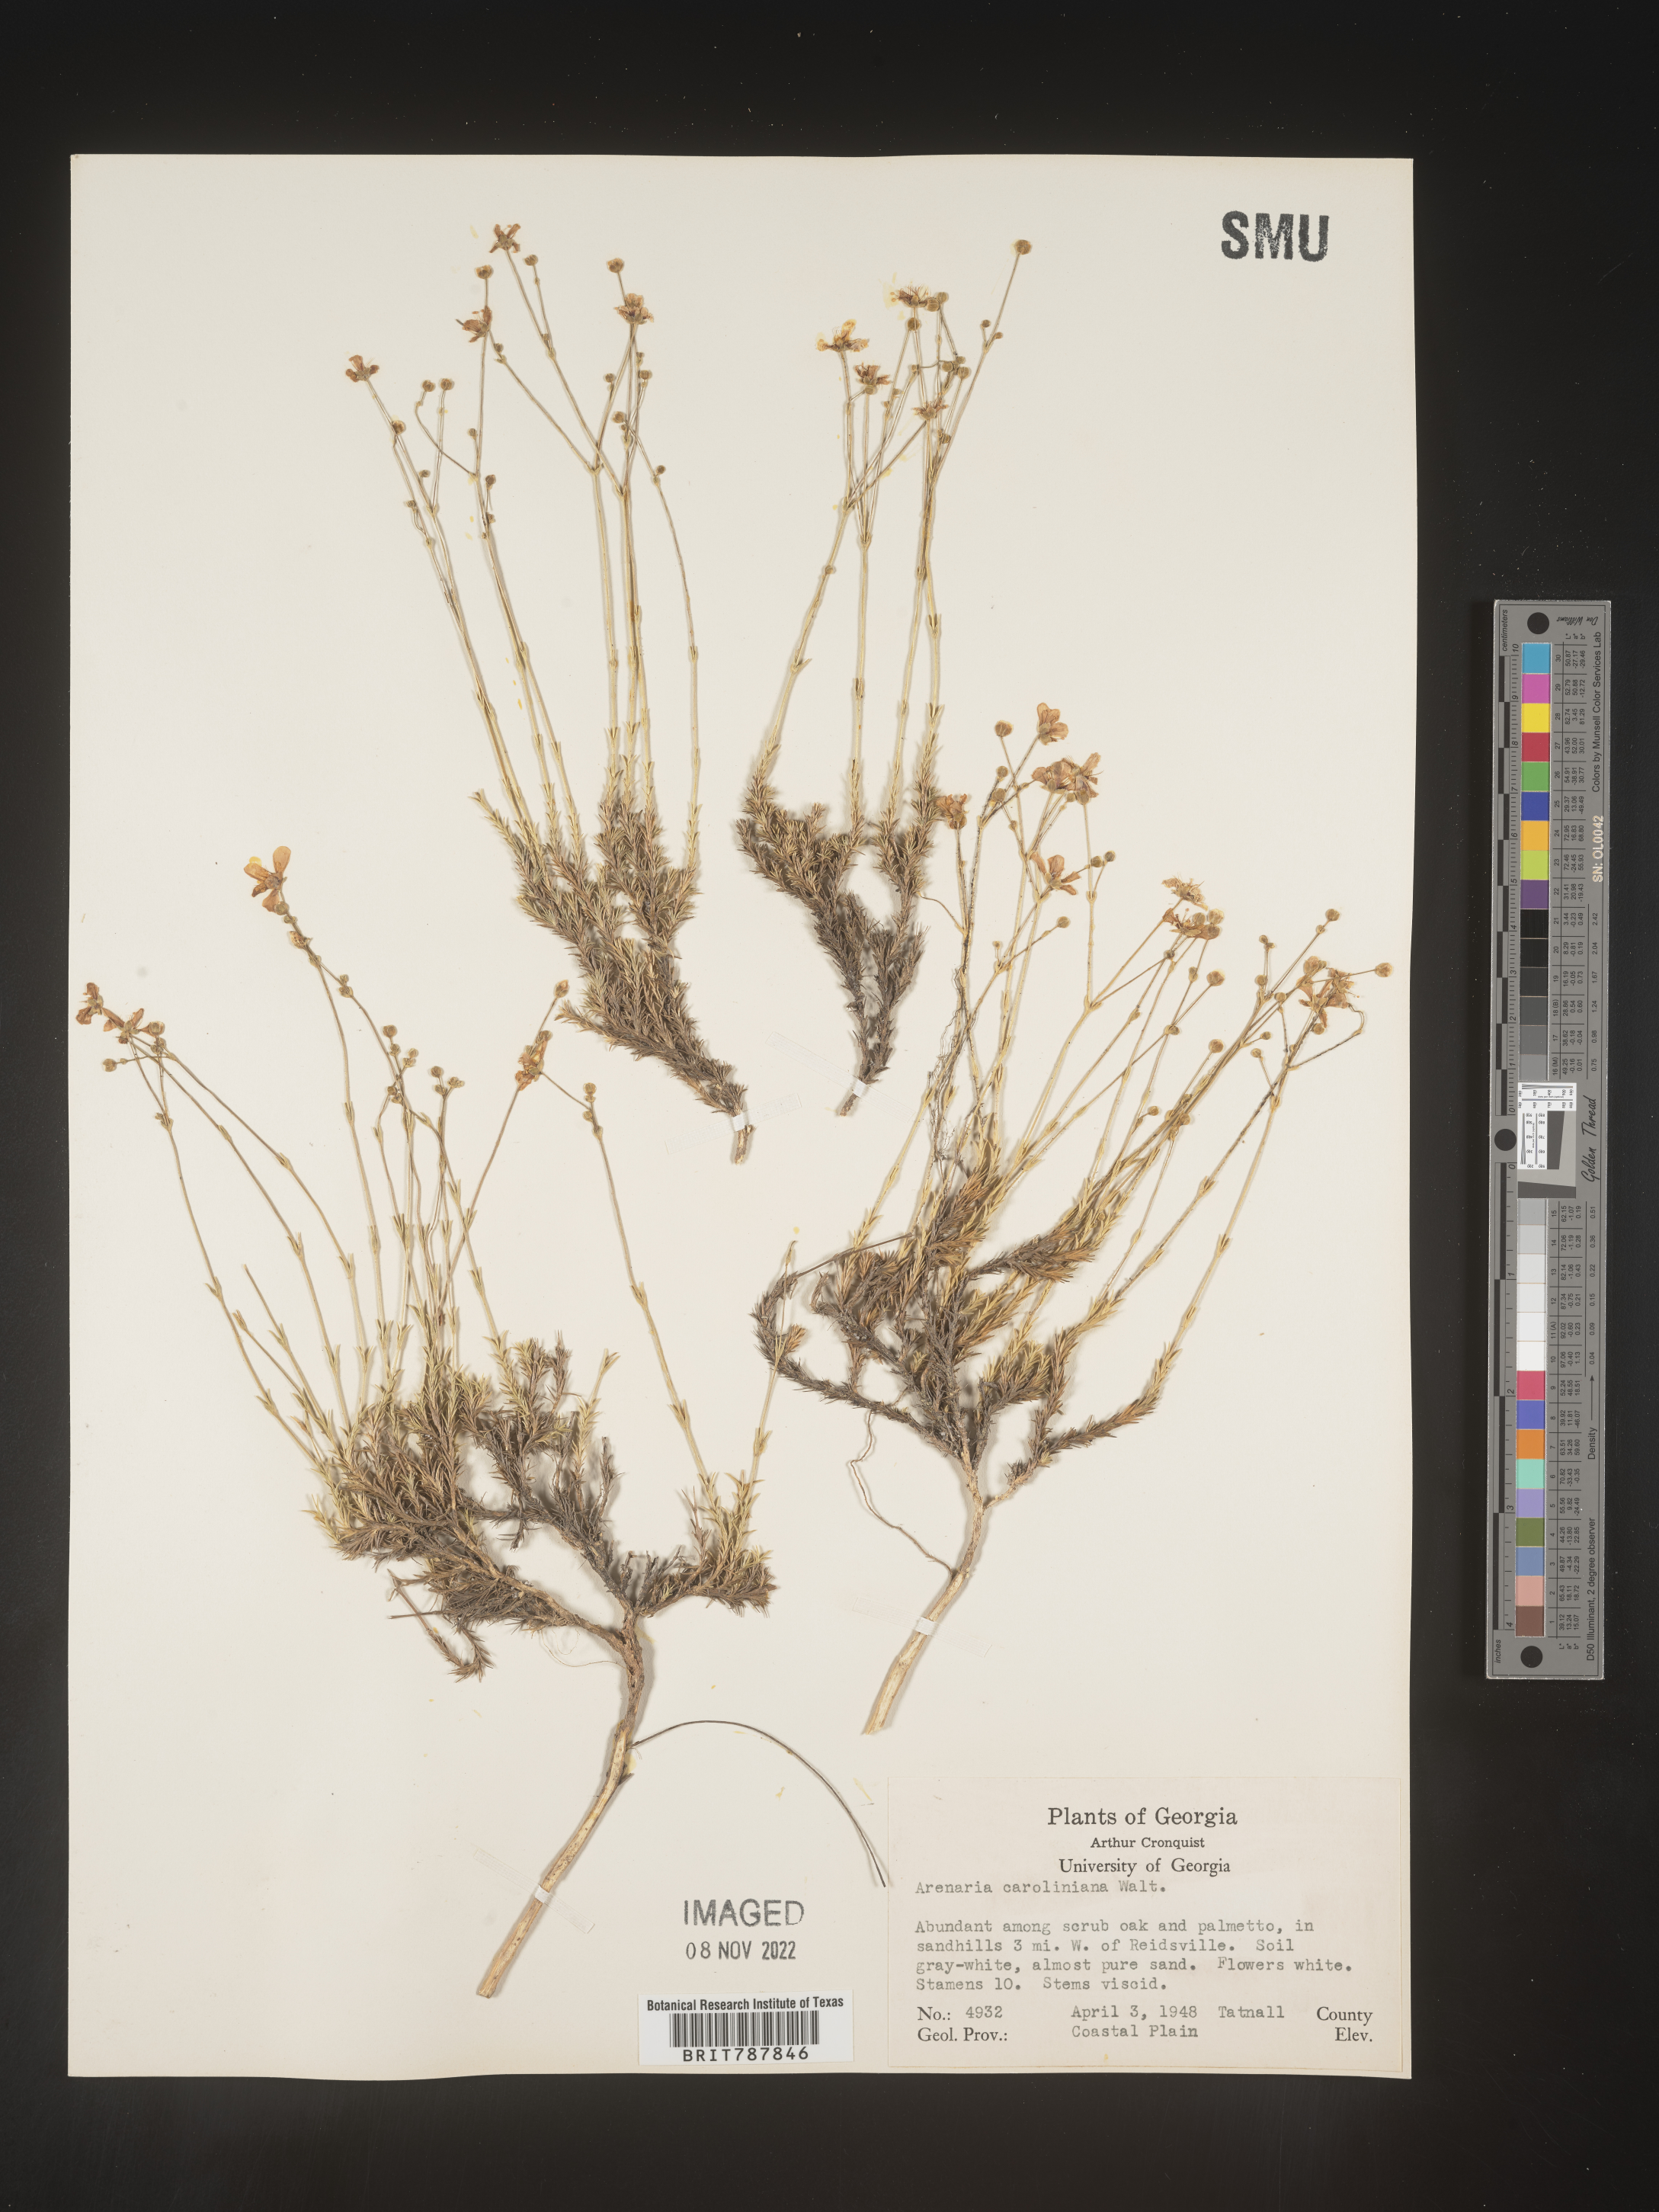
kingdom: Plantae
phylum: Tracheophyta
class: Magnoliopsida
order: Caryophyllales
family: Caryophyllaceae
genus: Arenaria
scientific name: Arenaria
